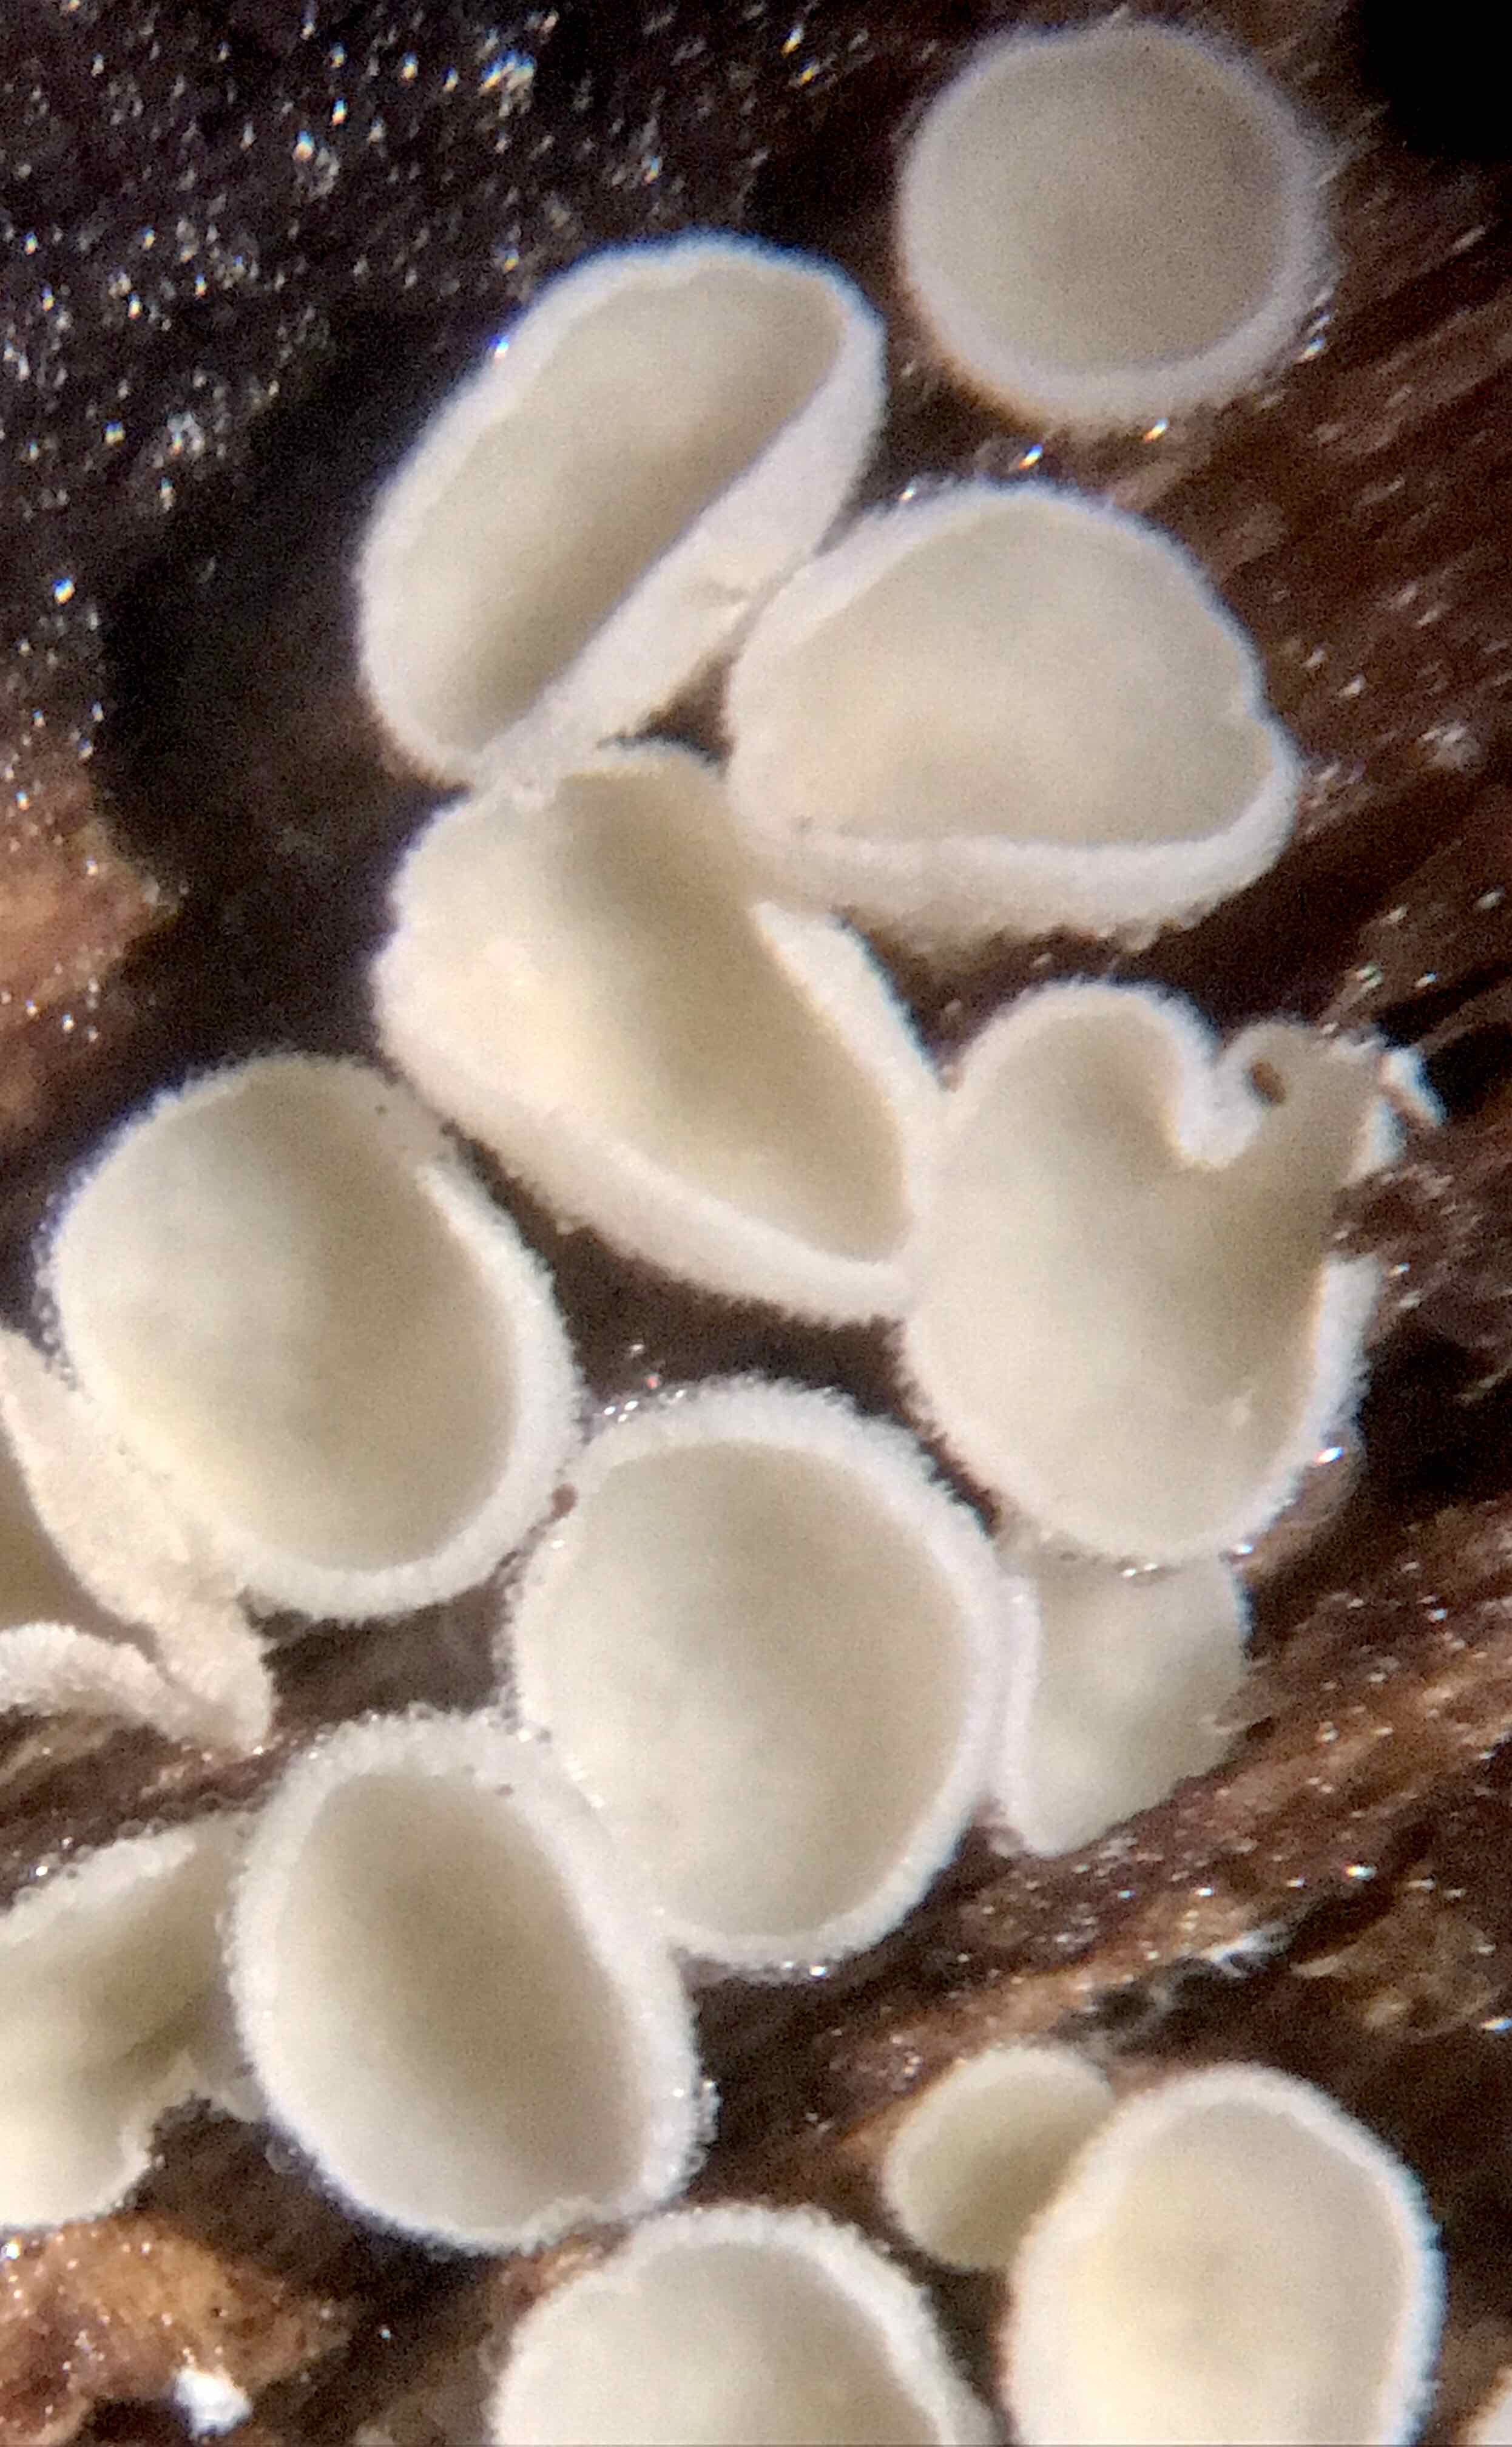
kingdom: Fungi
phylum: Ascomycota
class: Leotiomycetes
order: Helotiales
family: Lachnaceae
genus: Lachnum
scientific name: Lachnum
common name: frynseskive
